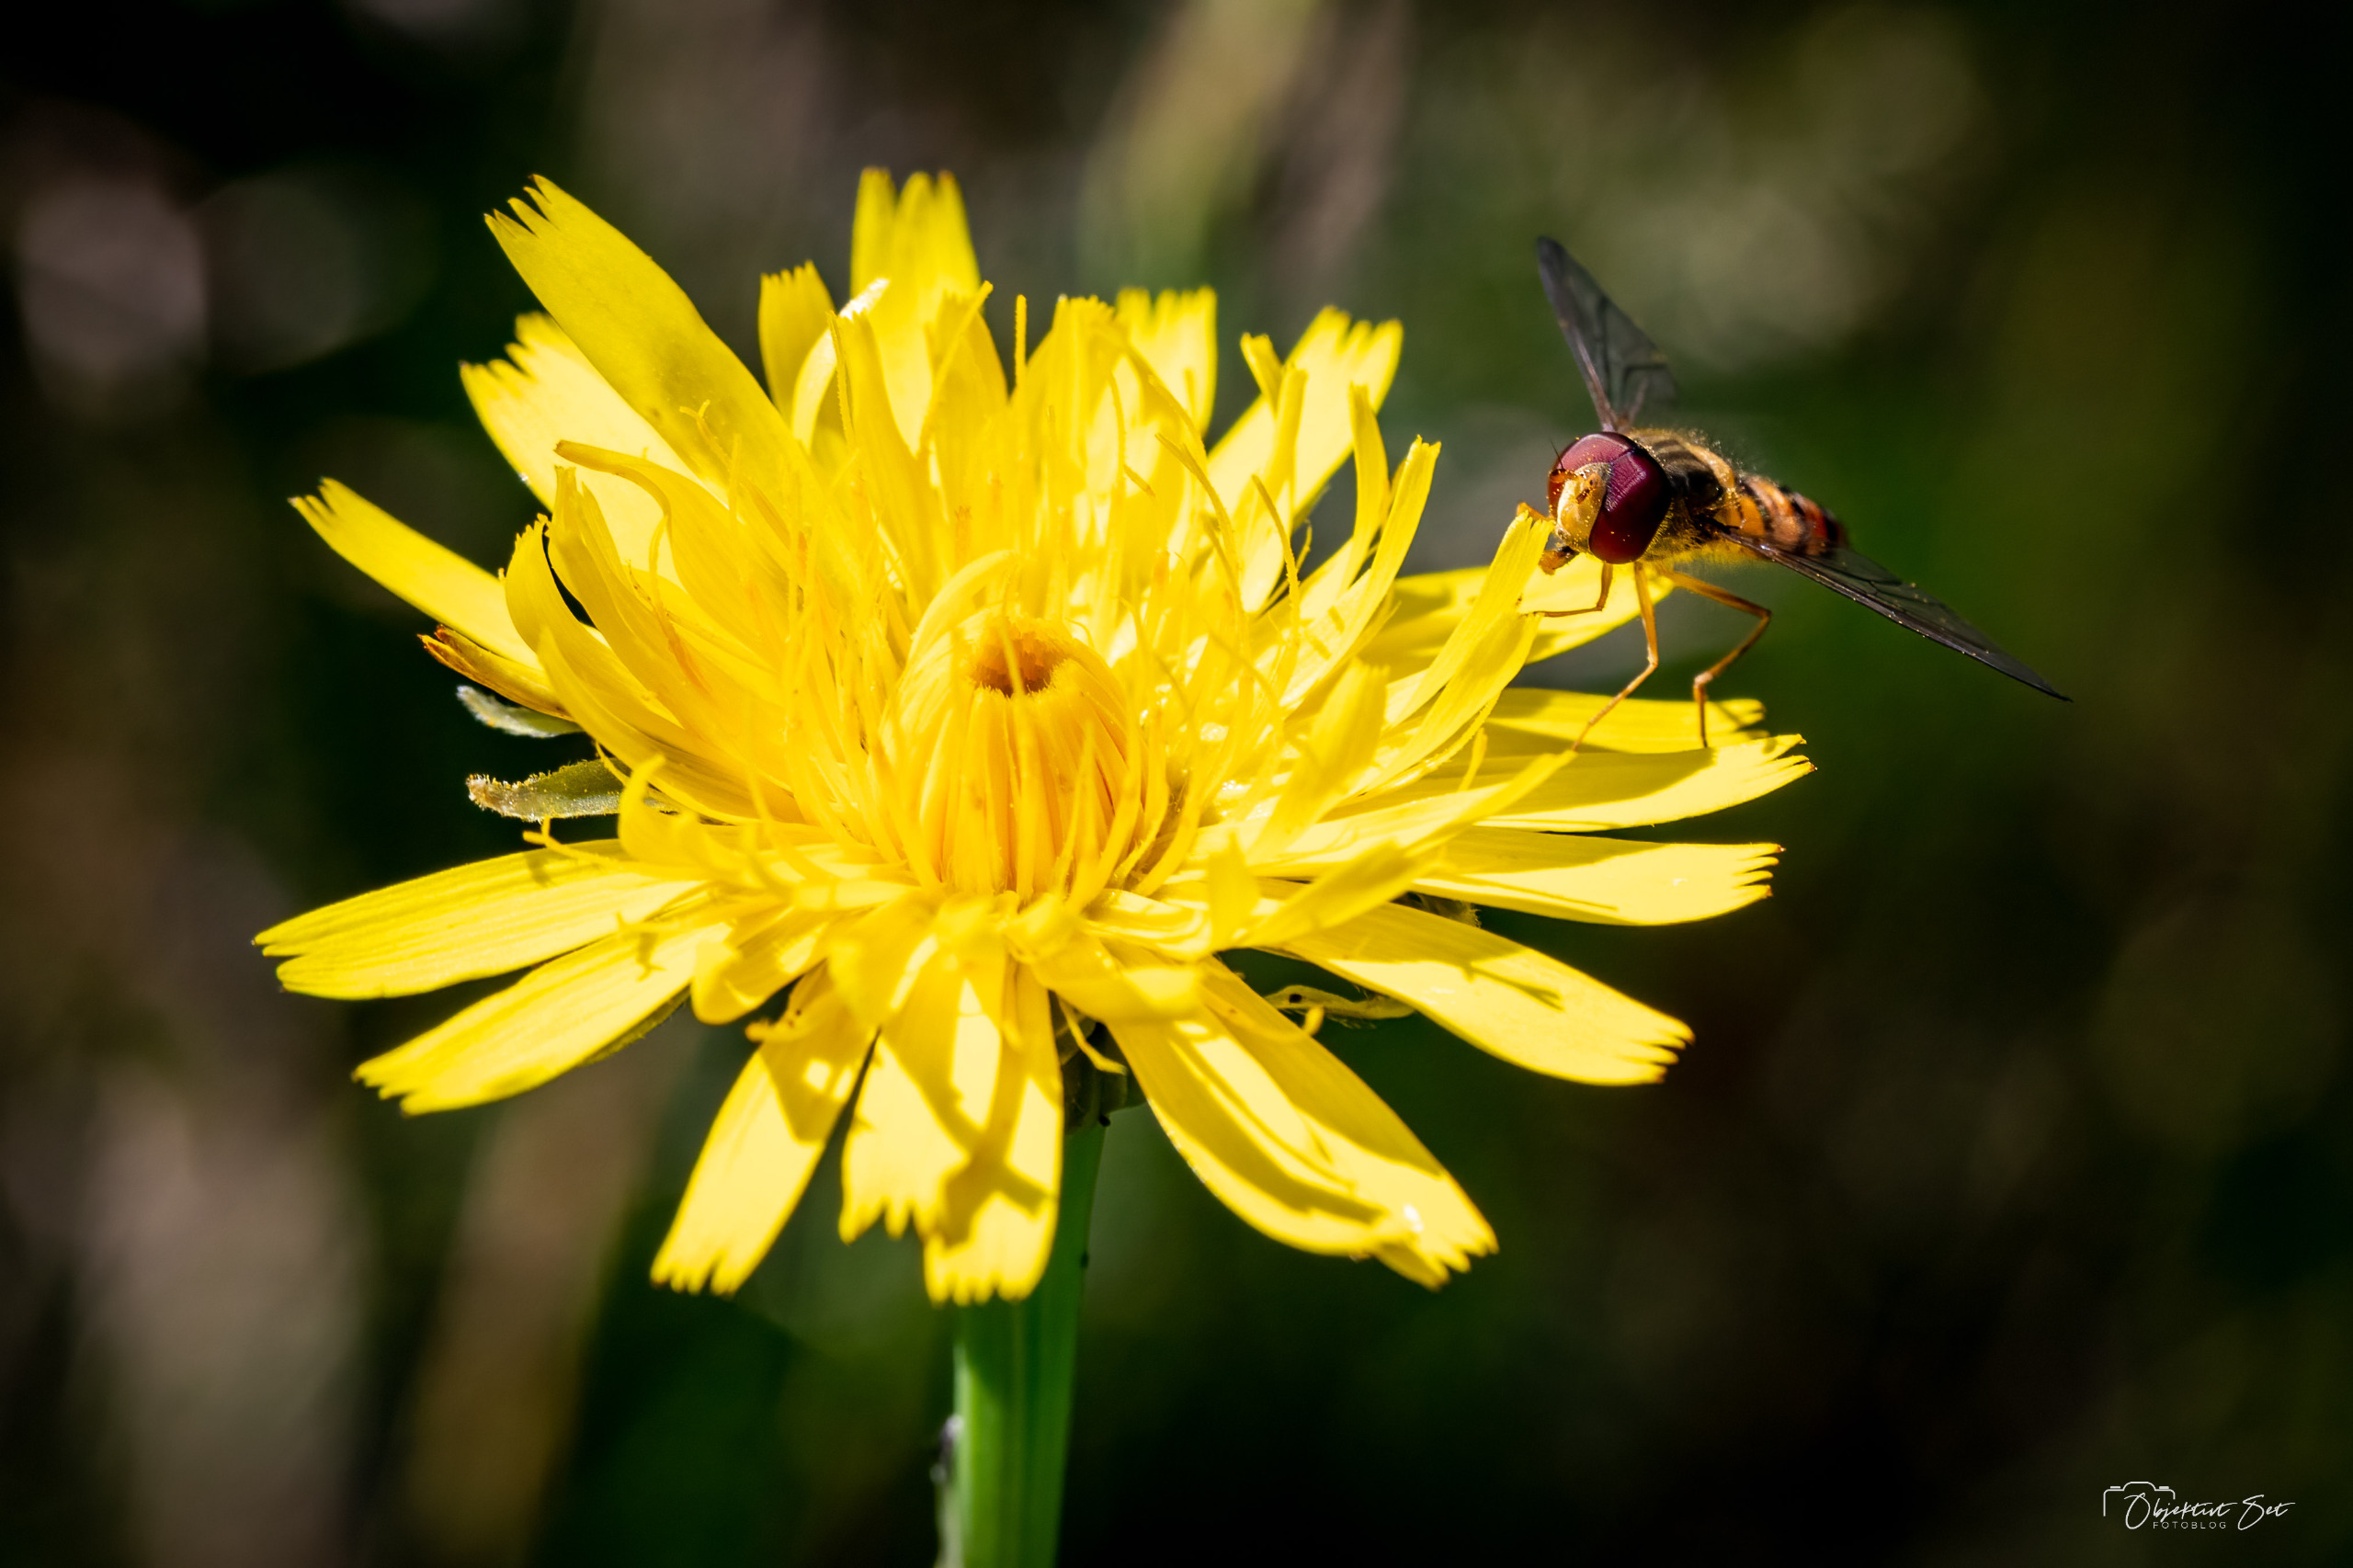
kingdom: Animalia
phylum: Arthropoda
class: Insecta
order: Diptera
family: Syrphidae
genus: Episyrphus
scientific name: Episyrphus balteatus
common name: Dobbeltbåndet svirreflue
